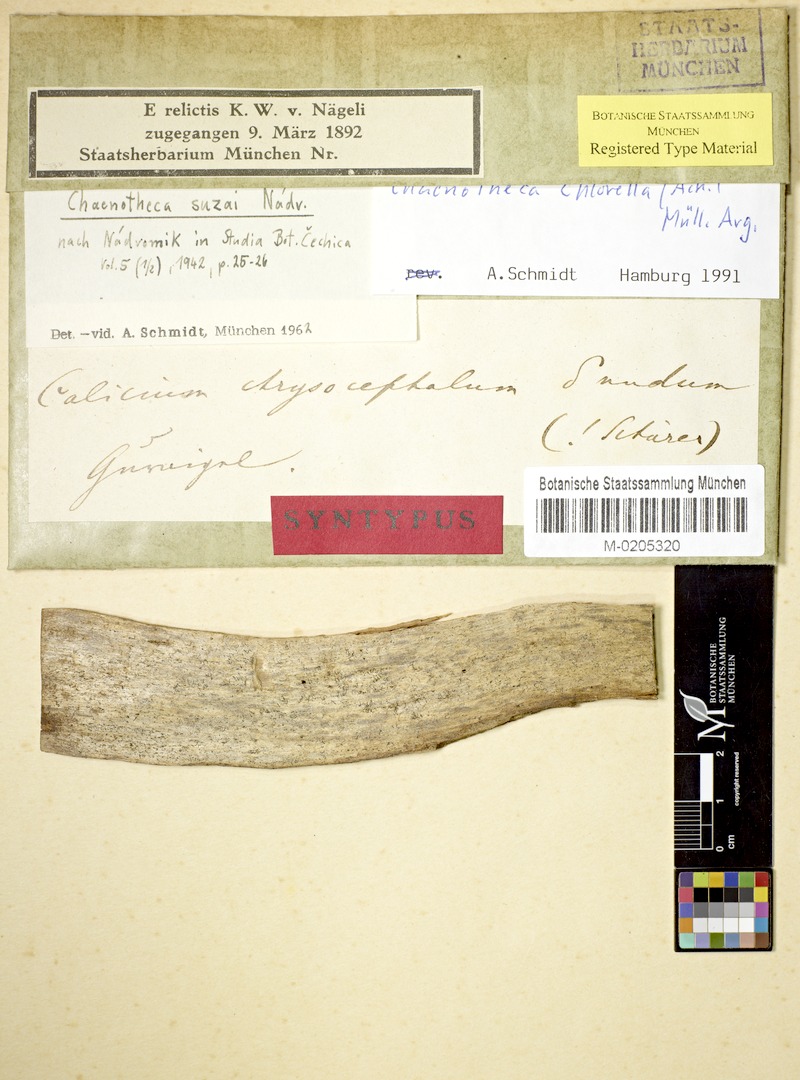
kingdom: Fungi
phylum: Ascomycota
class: Coniocybomycetes
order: Coniocybales
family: Coniocybaceae
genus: Chaenotheca
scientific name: Chaenotheca chlorella
